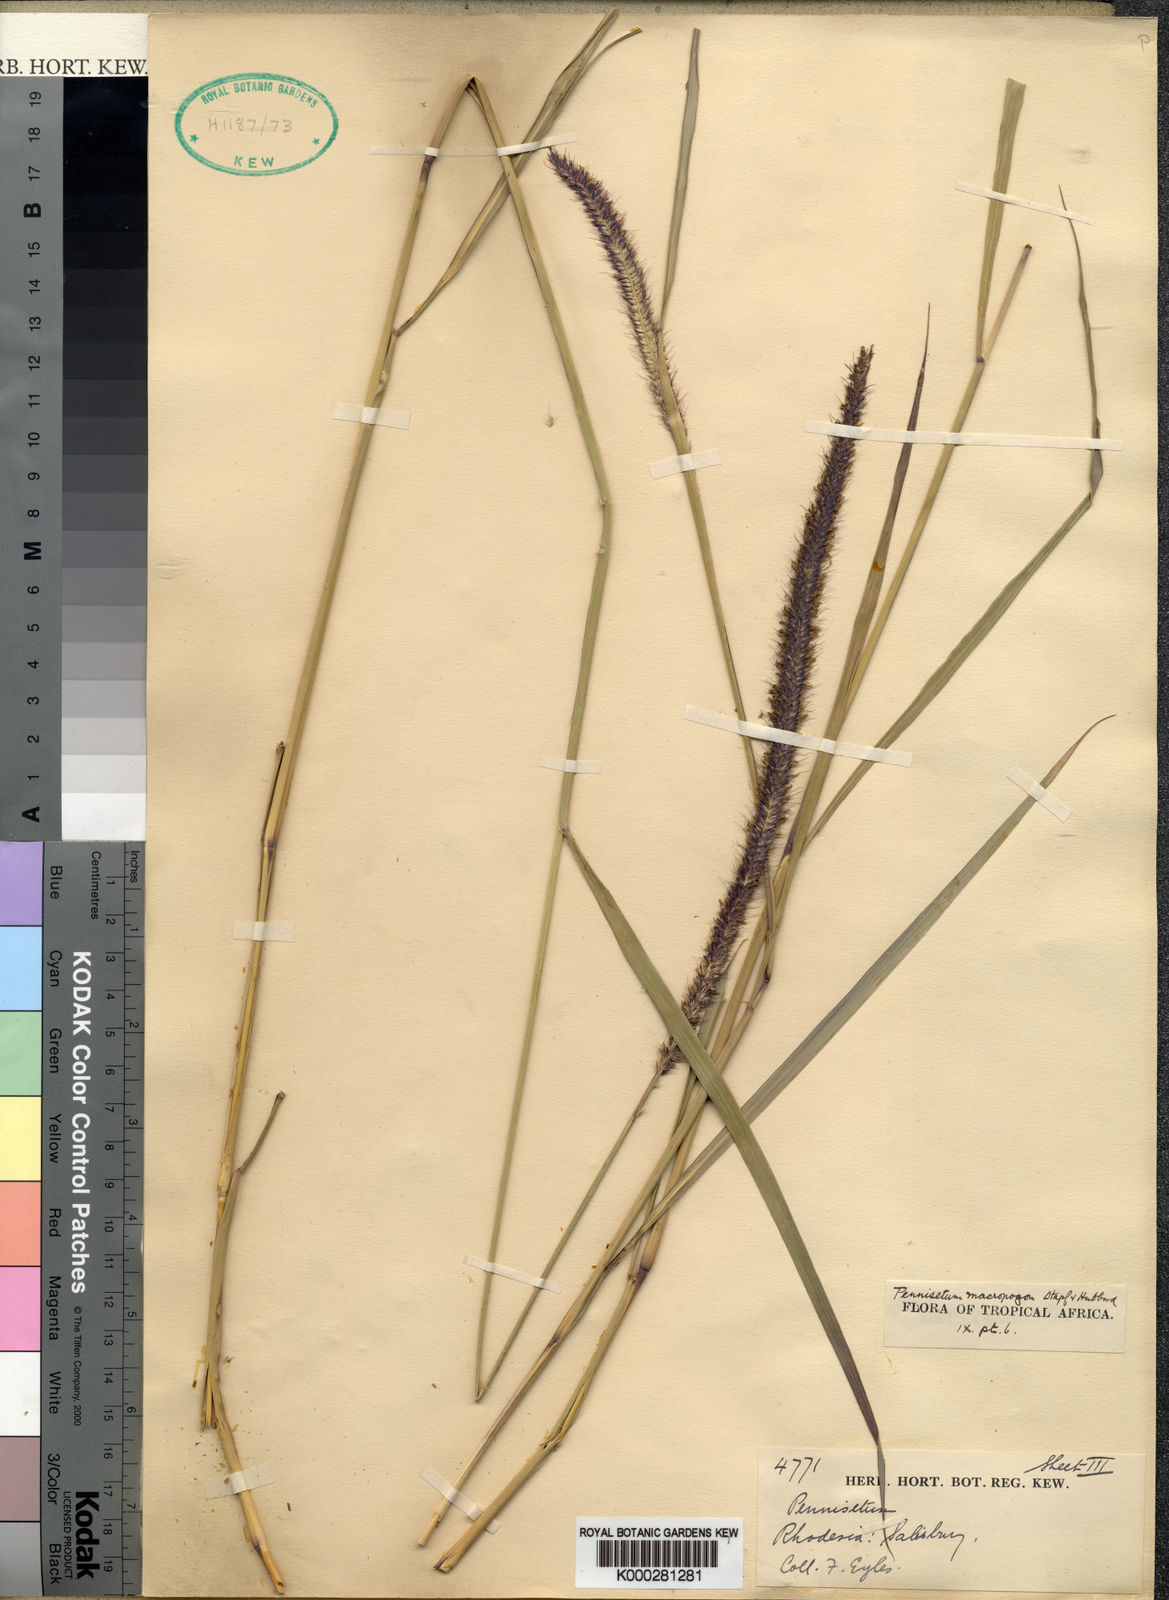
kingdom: Plantae
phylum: Tracheophyta
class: Liliopsida
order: Poales
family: Poaceae
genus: Cenchrus
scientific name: Cenchrus caudatus
